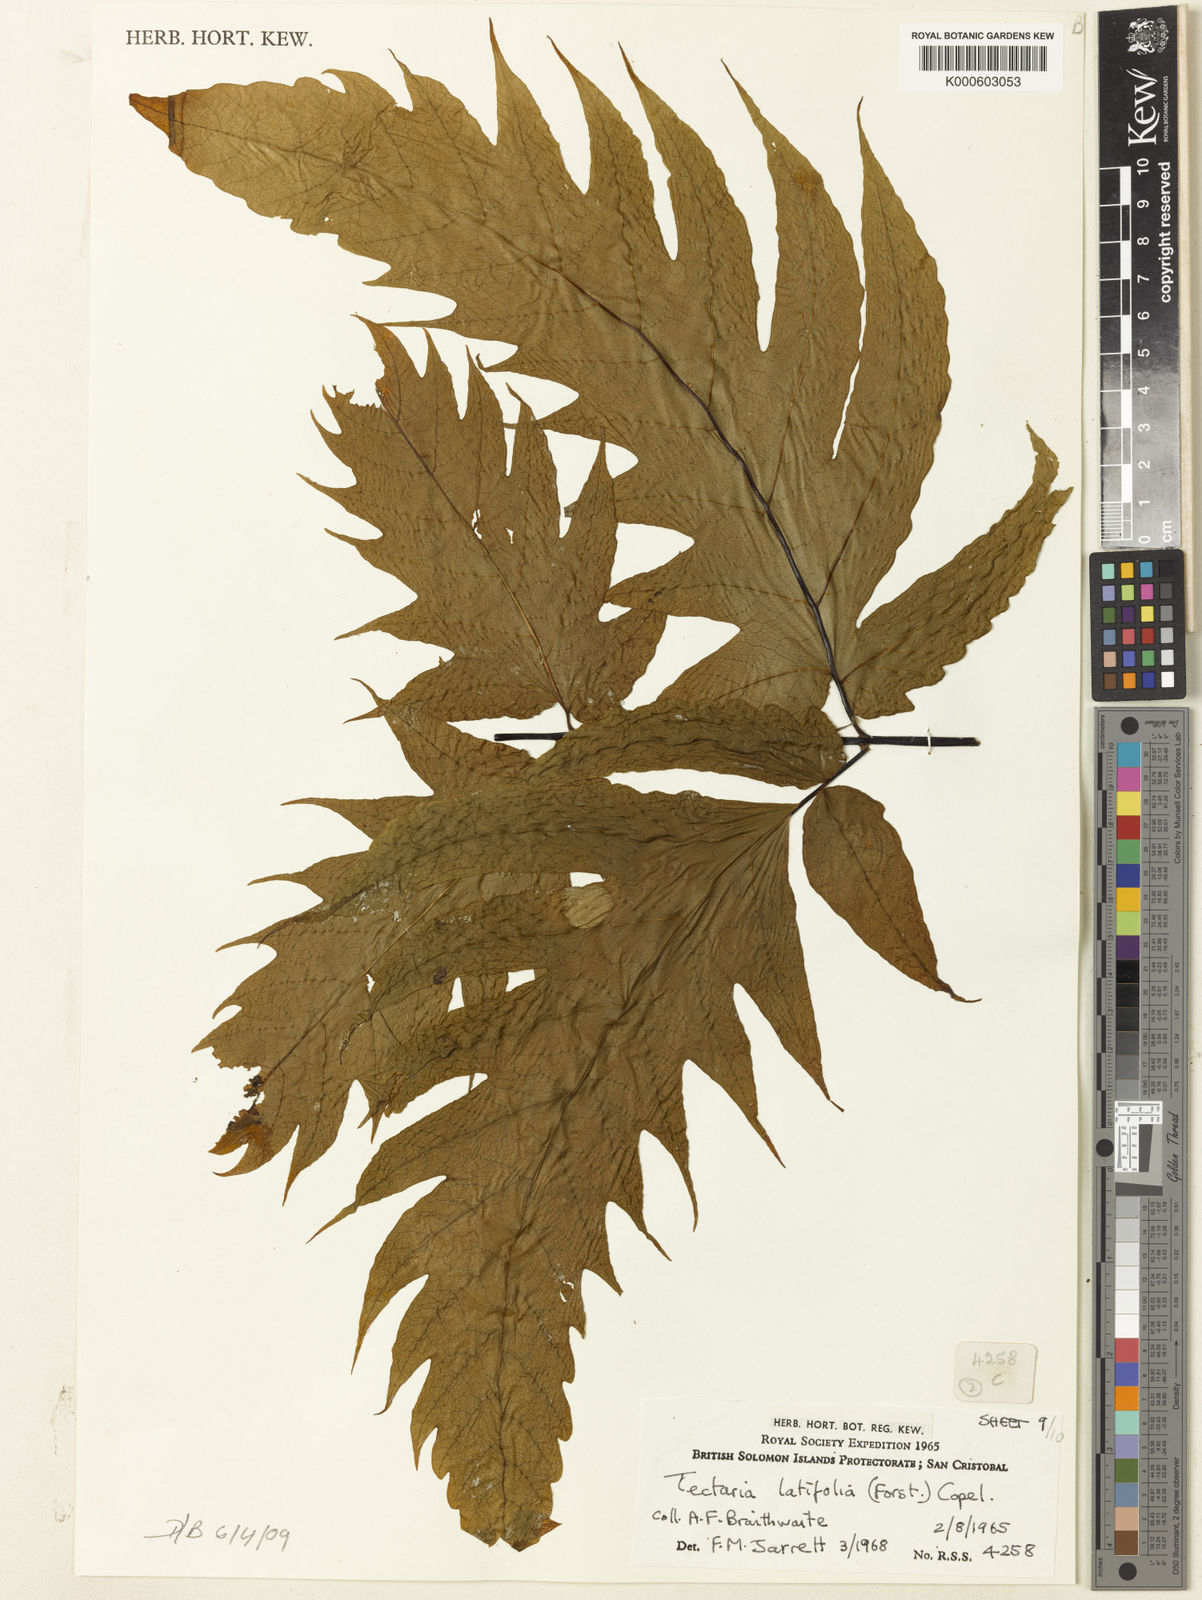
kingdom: Plantae
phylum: Tracheophyta
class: Polypodiopsida
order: Polypodiales
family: Tectariaceae
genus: Tectaria
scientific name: Tectaria
